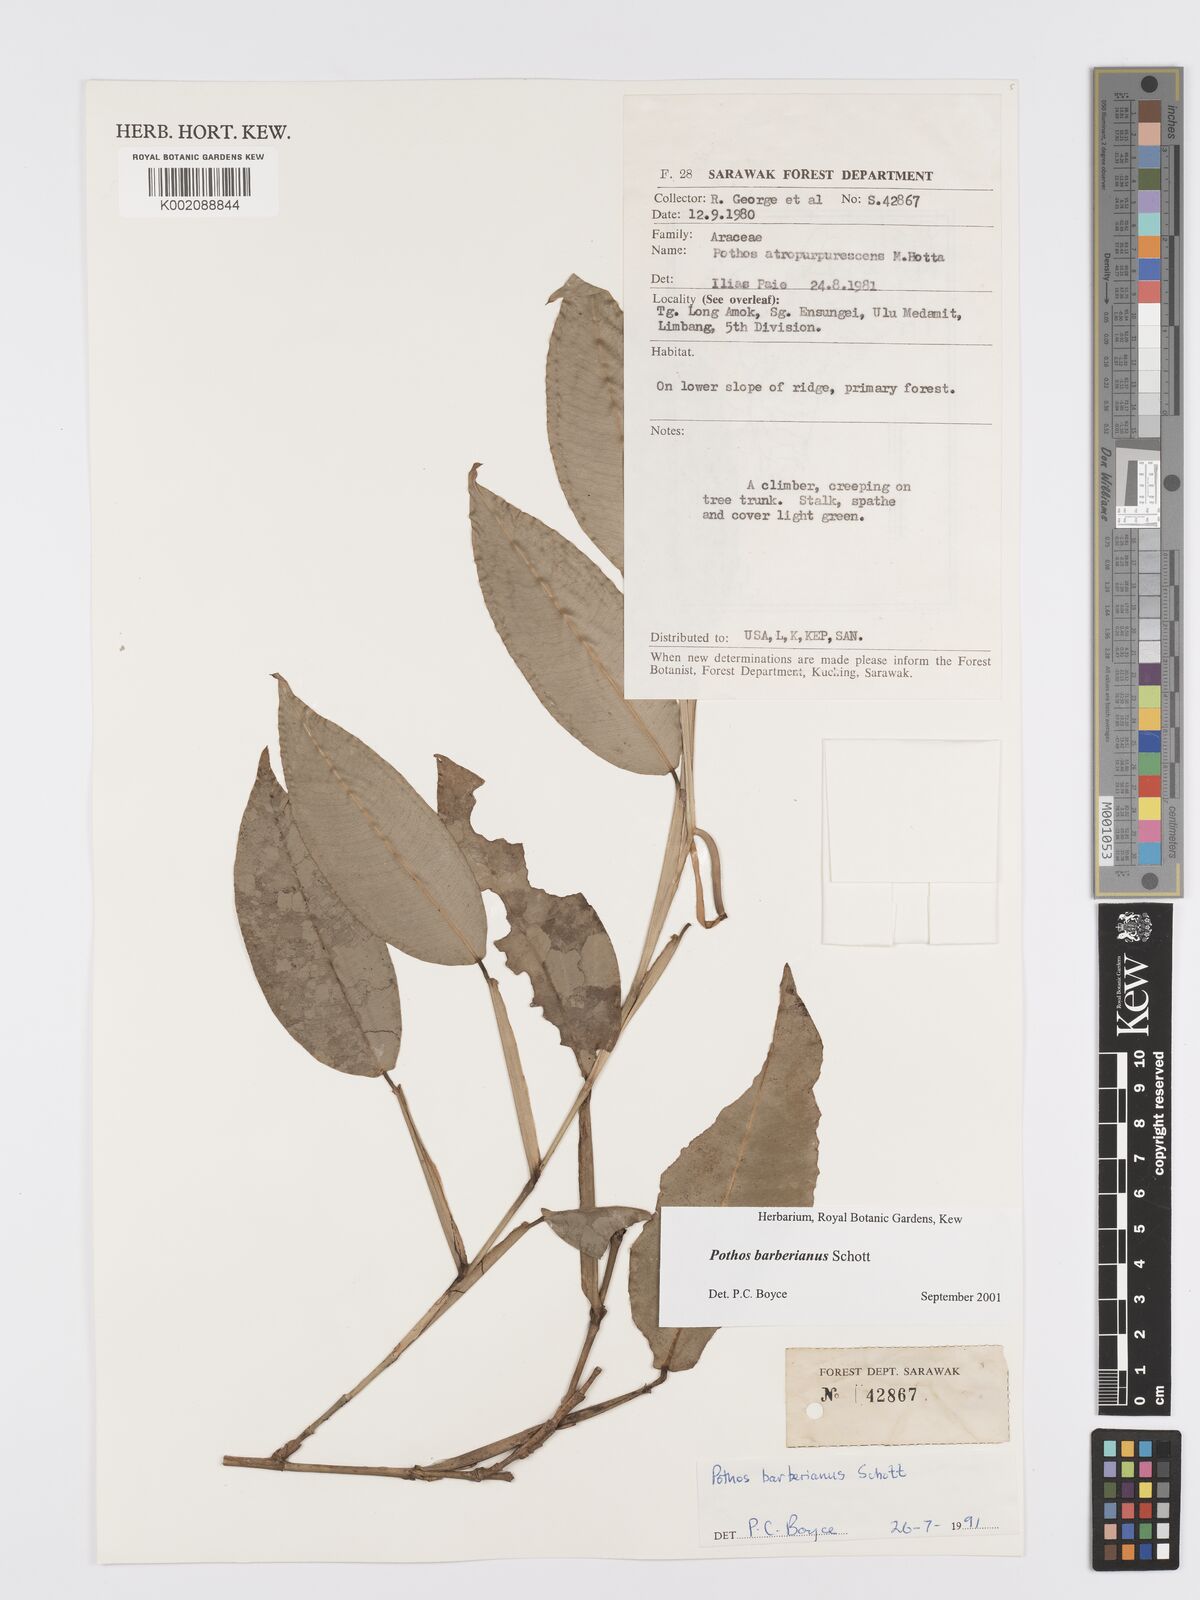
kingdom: Plantae
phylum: Tracheophyta
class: Liliopsida
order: Alismatales
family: Araceae
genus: Pothos
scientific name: Pothos barberianus
